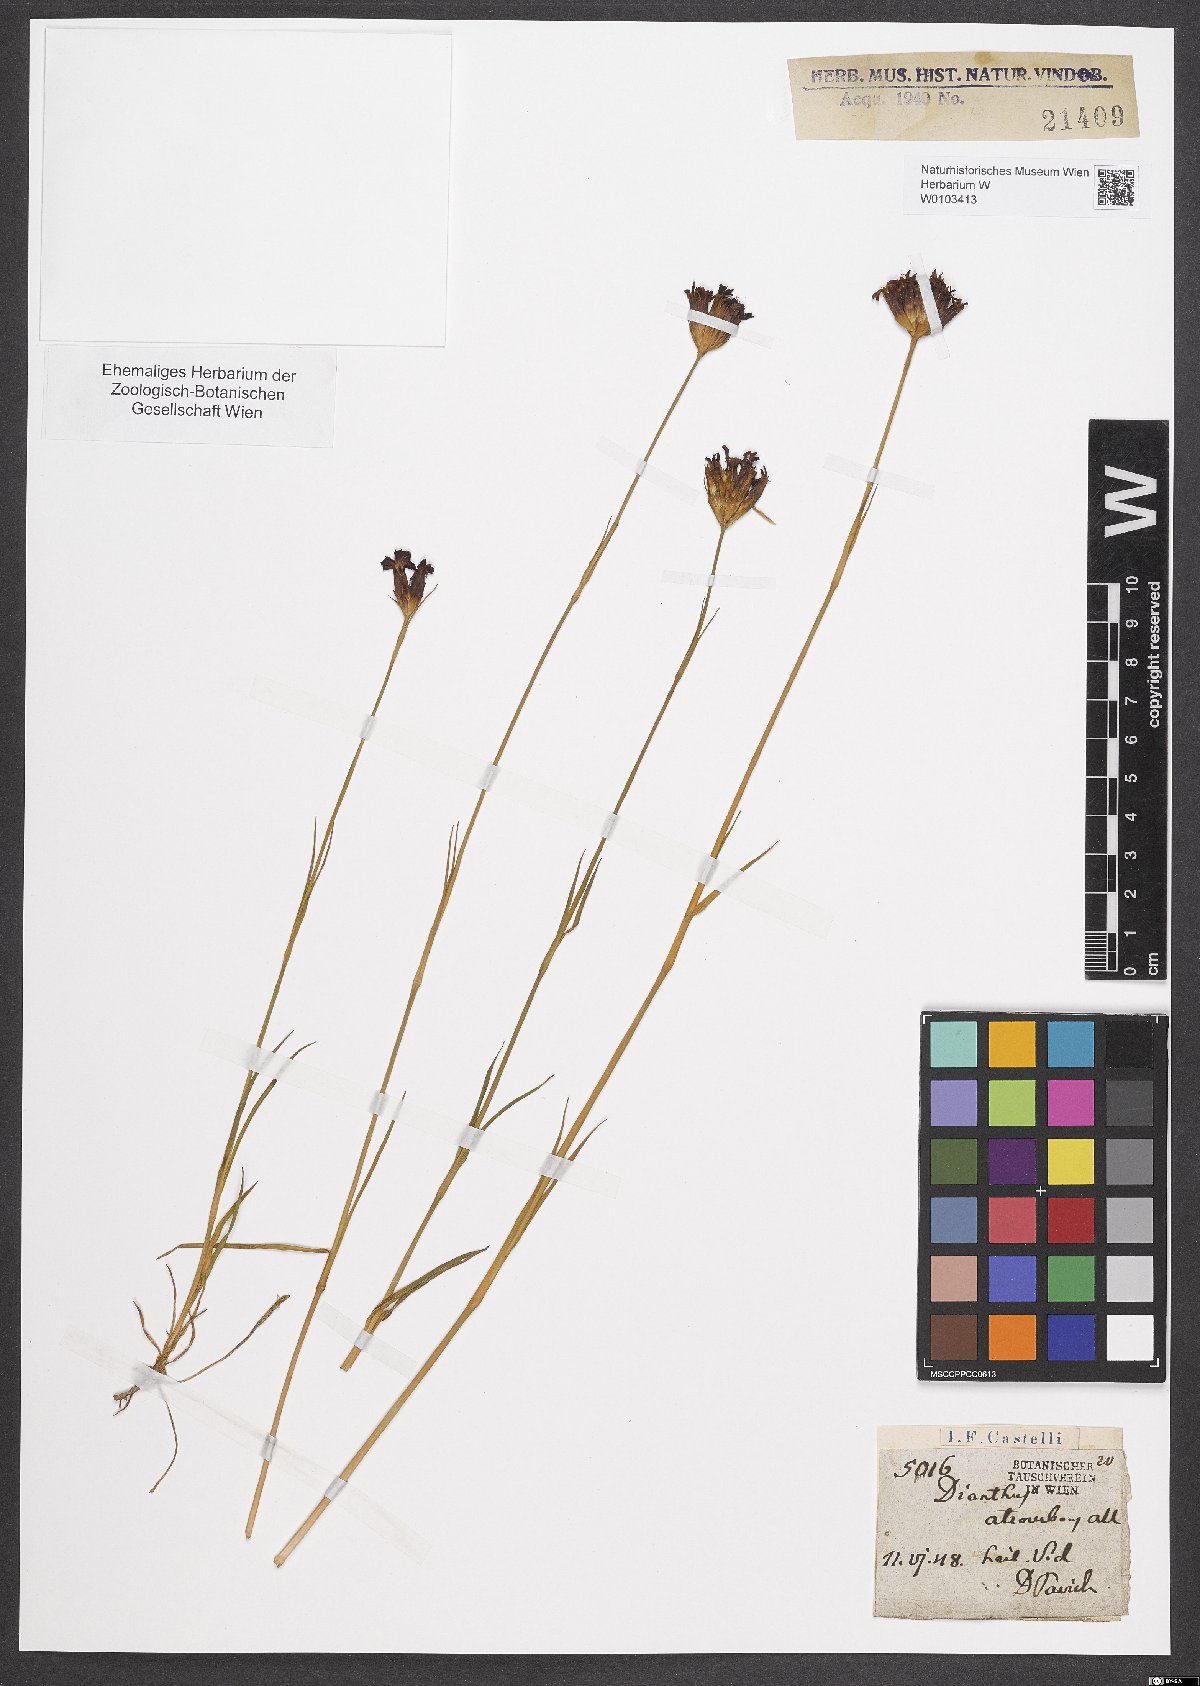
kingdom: Plantae
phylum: Tracheophyta
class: Magnoliopsida
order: Caryophyllales
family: Caryophyllaceae
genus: Dianthus
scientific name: Dianthus carthusianorum
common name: Carthusian pink
